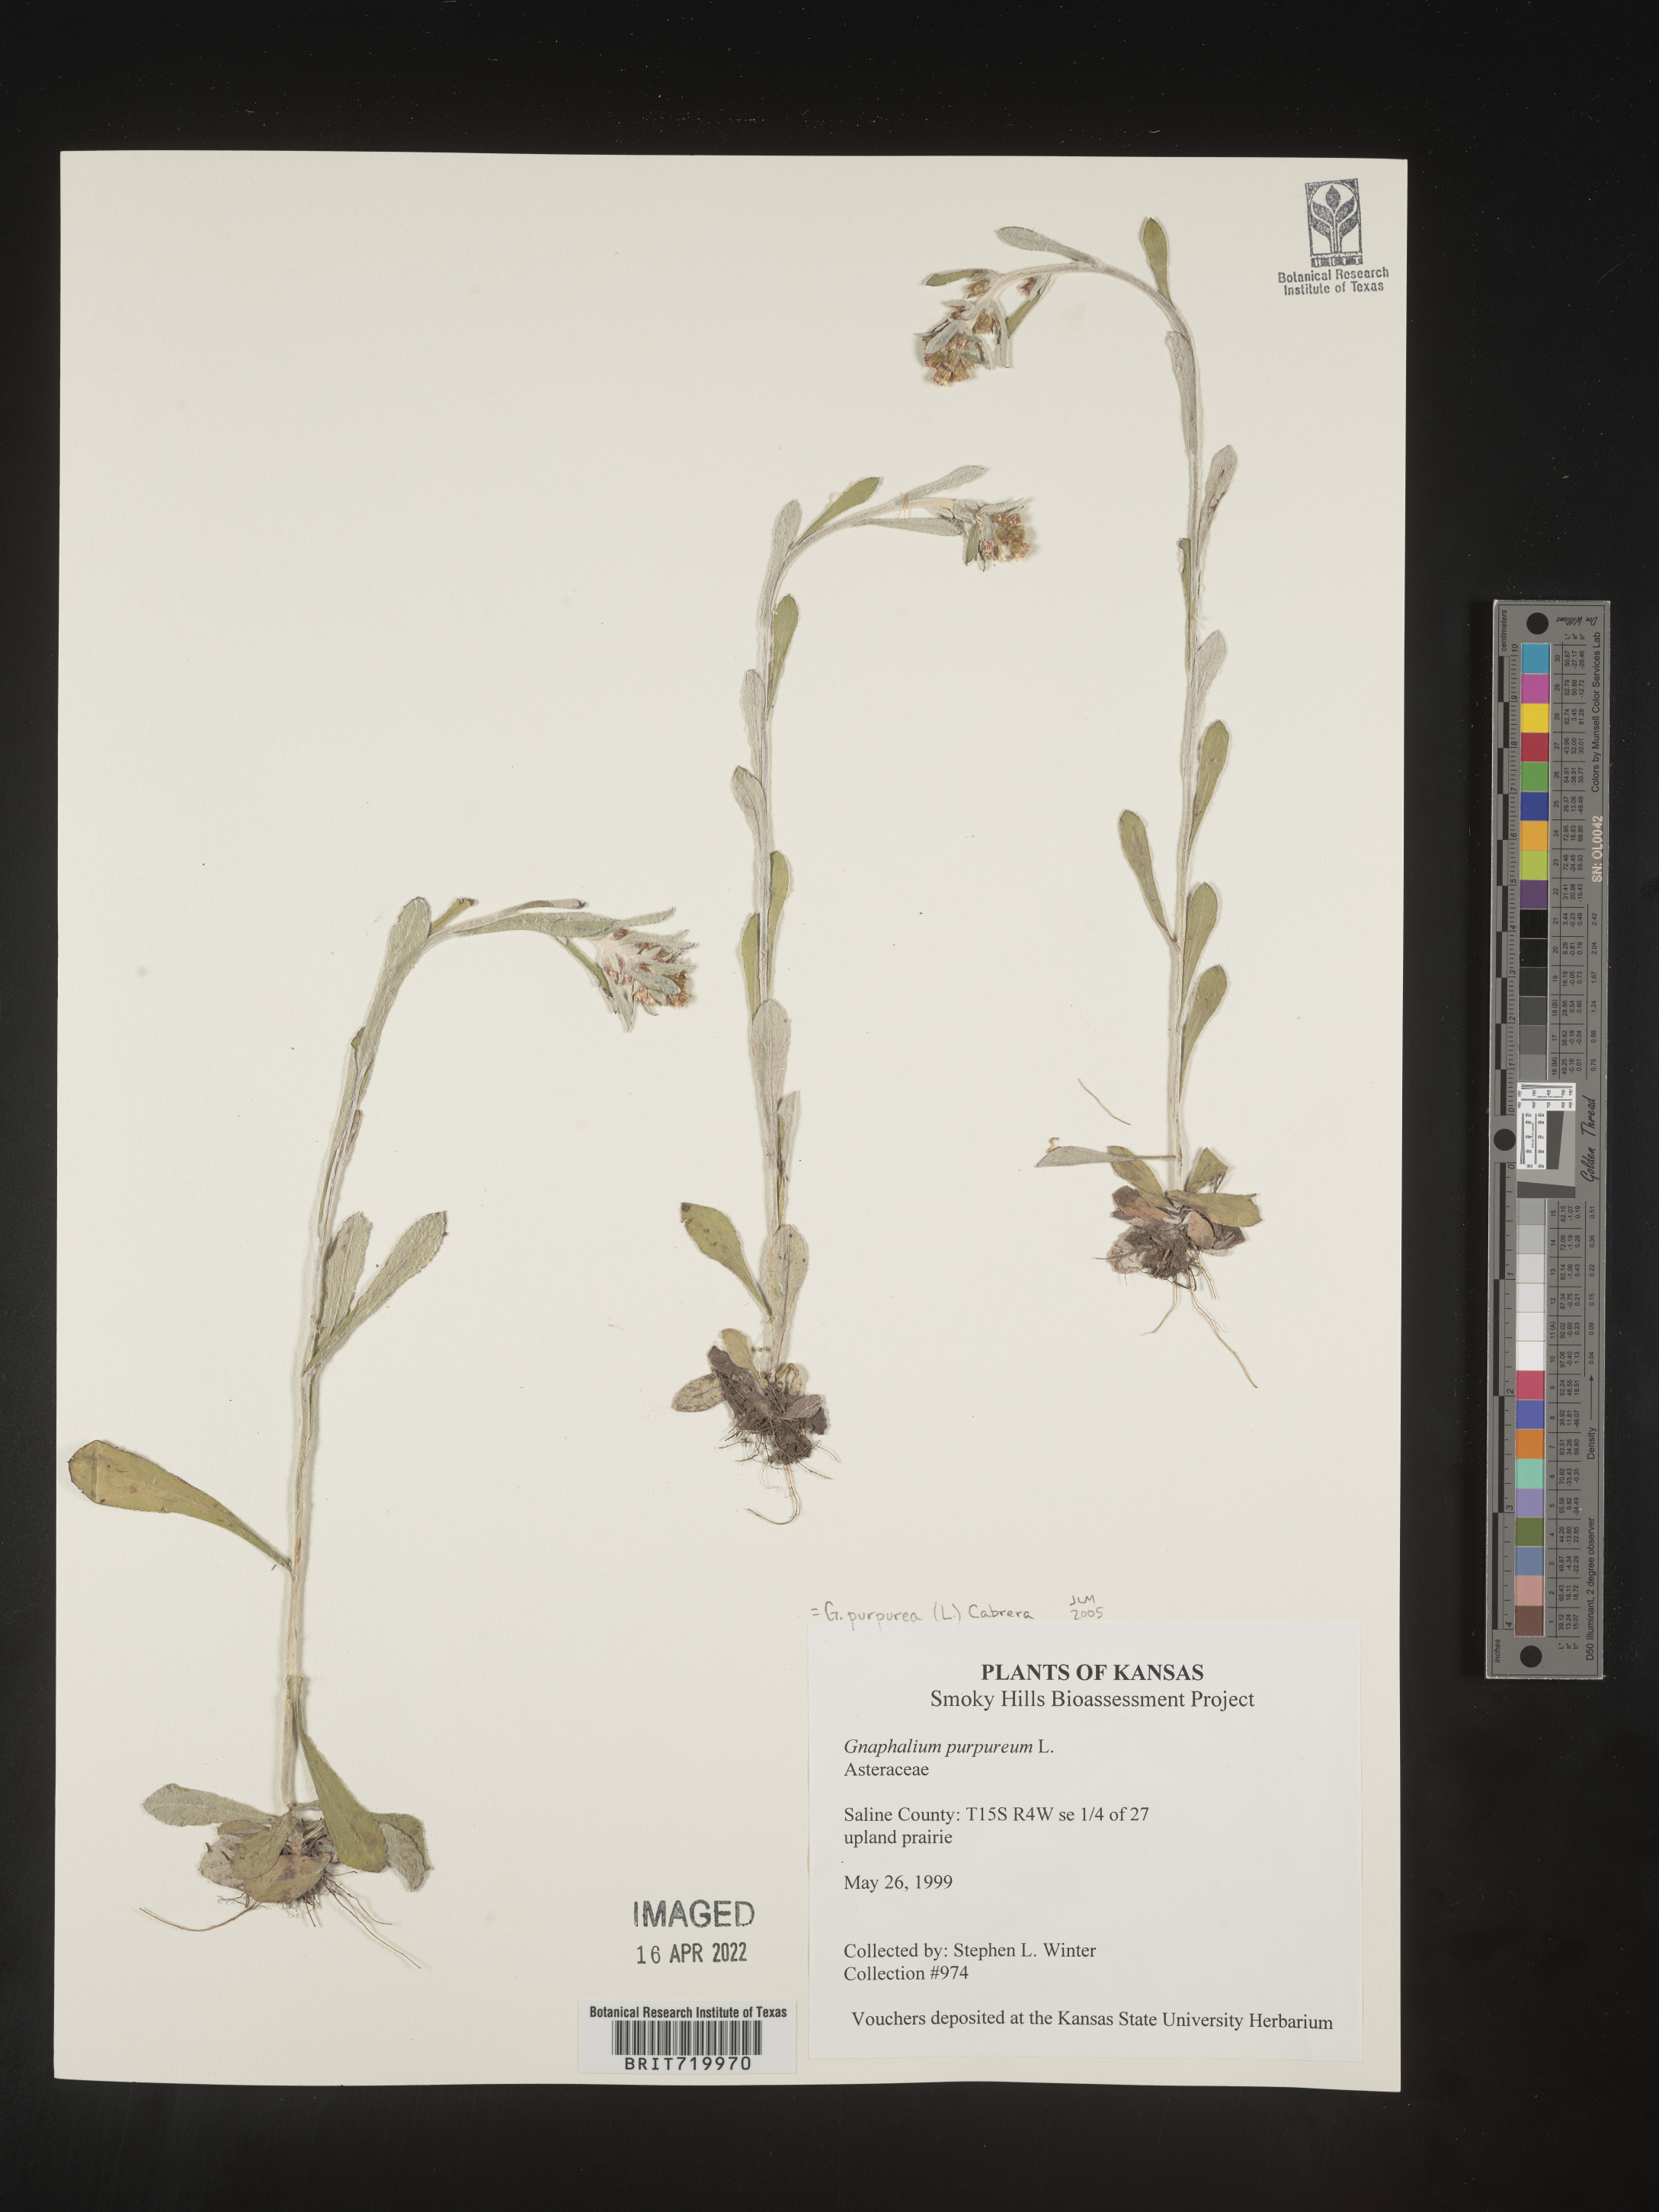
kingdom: Plantae
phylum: Tracheophyta
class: Magnoliopsida
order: Asterales
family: Asteraceae
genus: Gamochaeta
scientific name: Gamochaeta purpurea
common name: Purple cudweed
